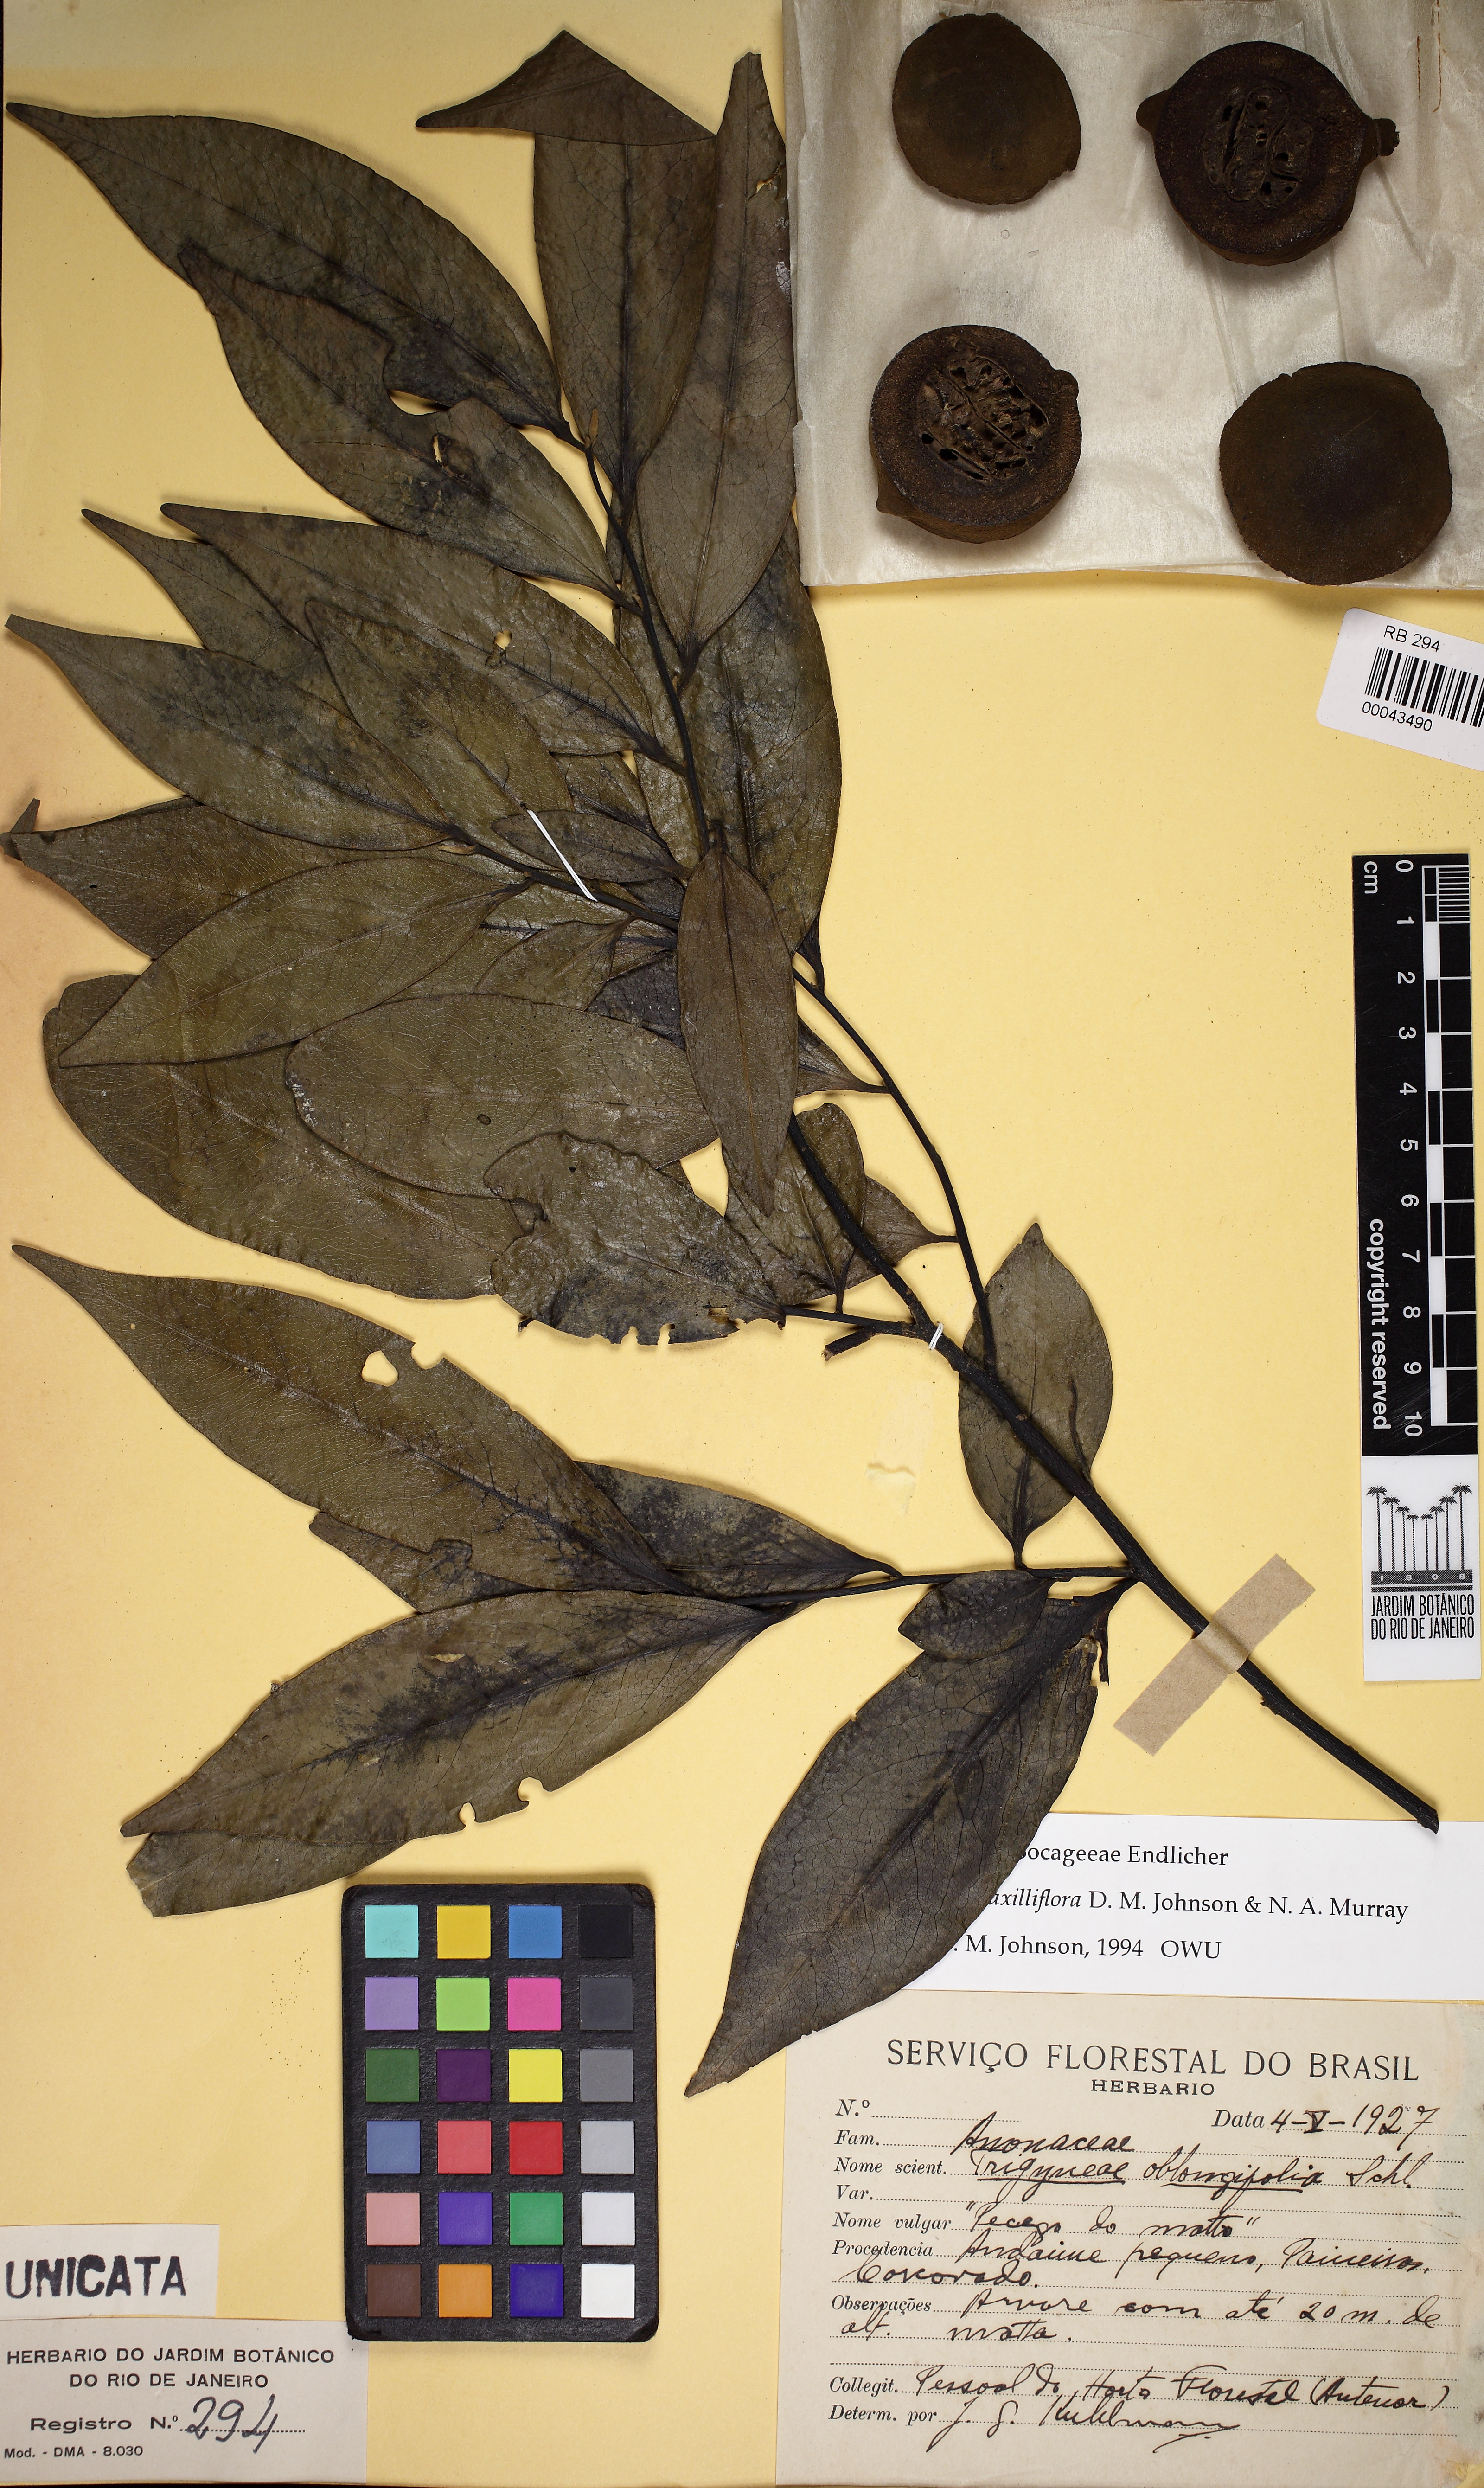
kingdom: Plantae
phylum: Tracheophyta
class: Magnoliopsida
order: Magnoliales
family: Annonaceae
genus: Trigynaea
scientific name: Trigynaea axilliflora
